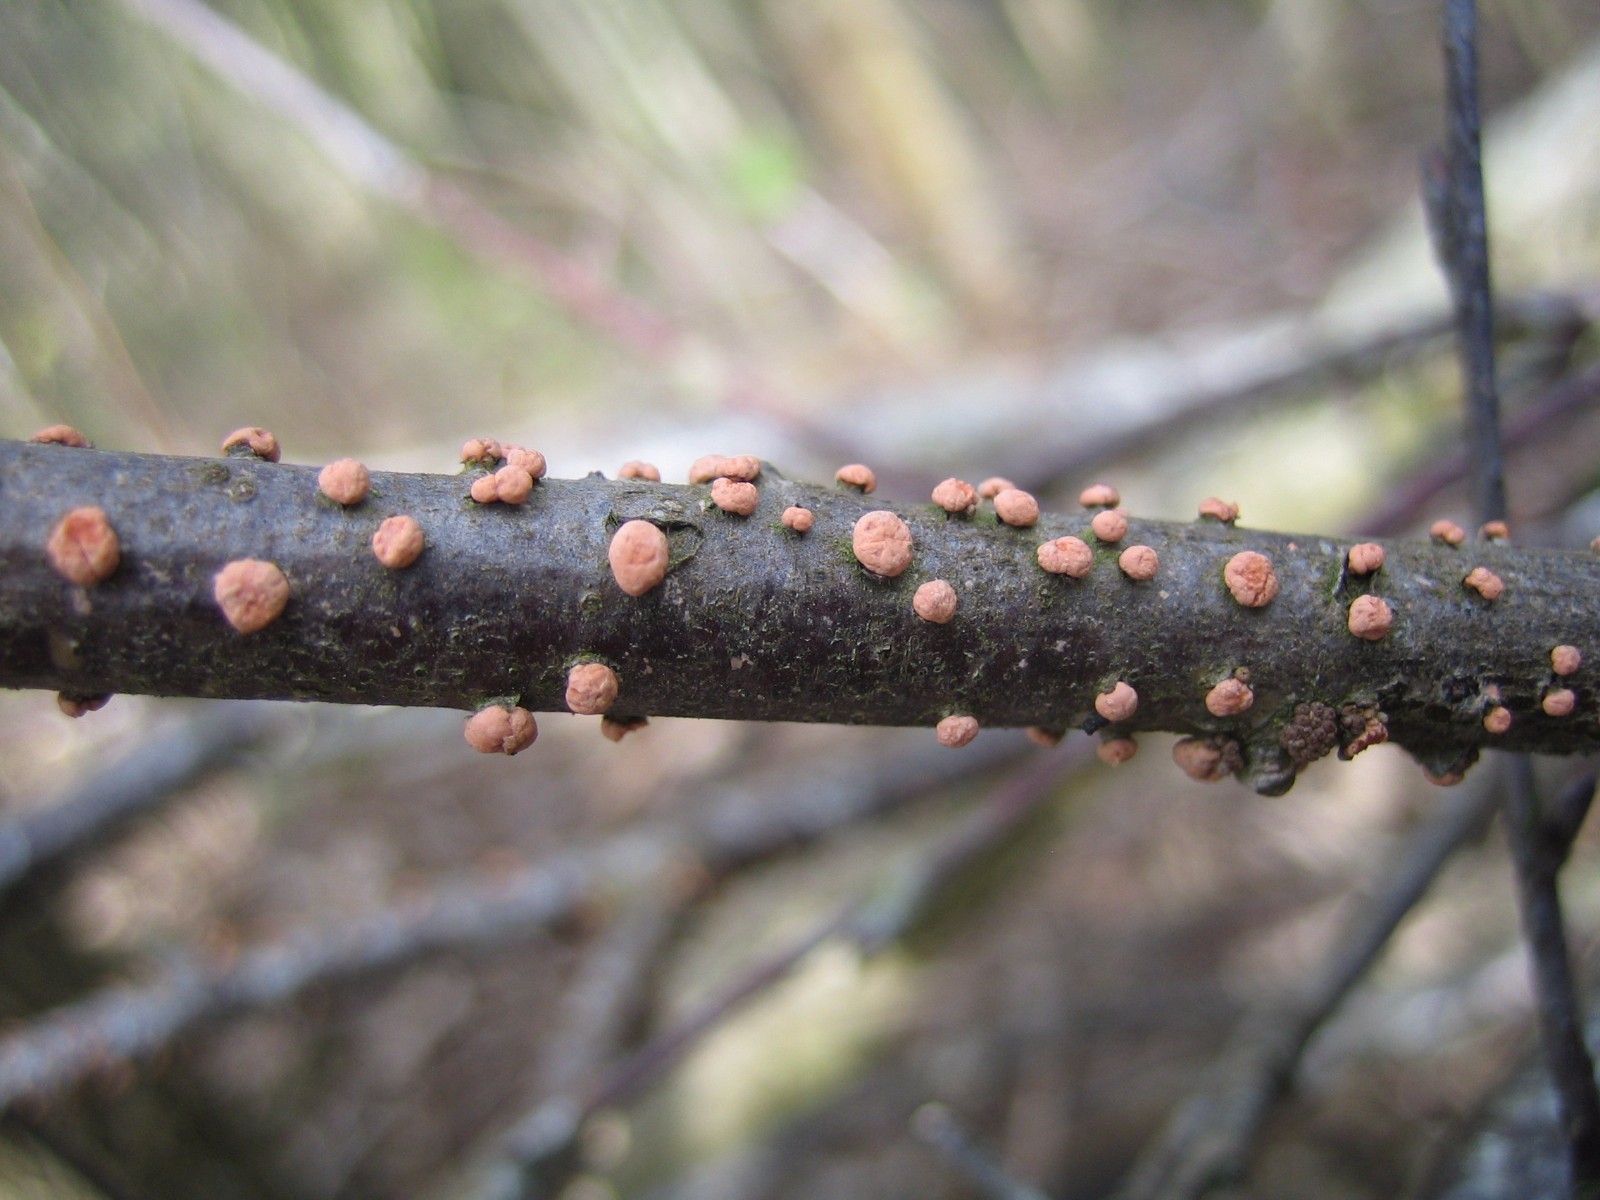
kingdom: Fungi
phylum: Ascomycota
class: Sordariomycetes
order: Hypocreales
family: Nectriaceae
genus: Nectria
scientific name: Nectria cinnabarina
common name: almindelig cinnobersvamp
